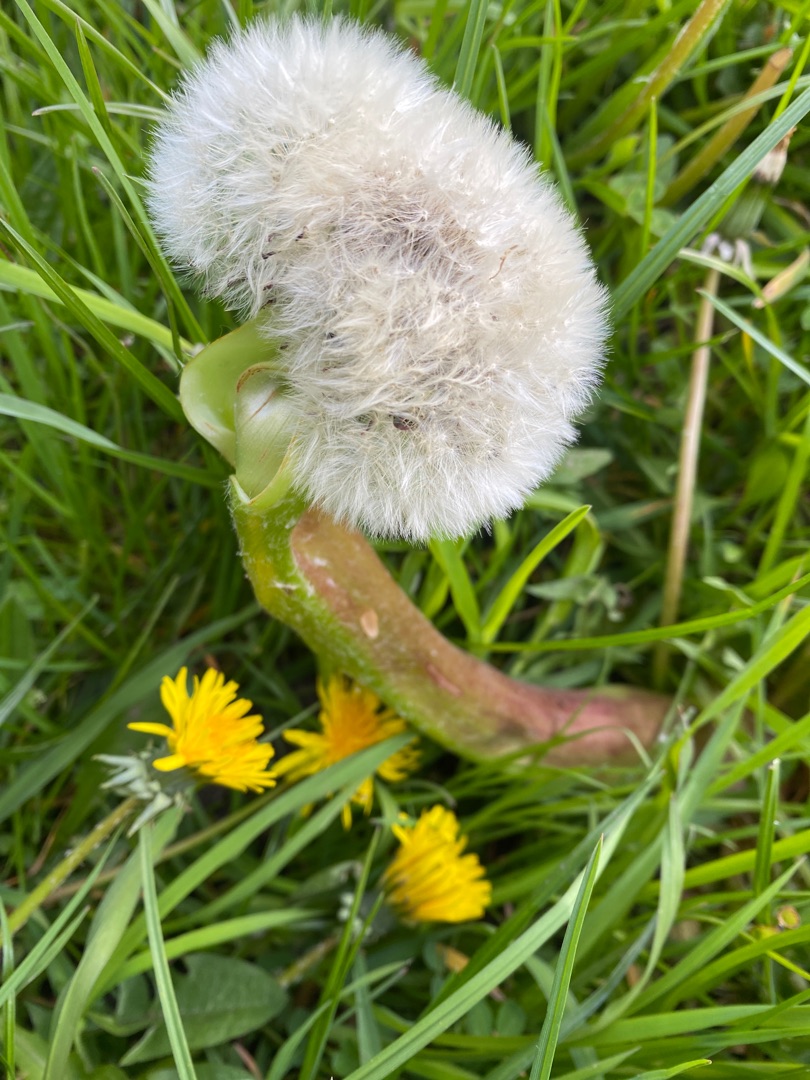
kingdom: Plantae
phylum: Tracheophyta
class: Magnoliopsida
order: Asterales
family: Asteraceae
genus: Taraxacum
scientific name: Taraxacum
